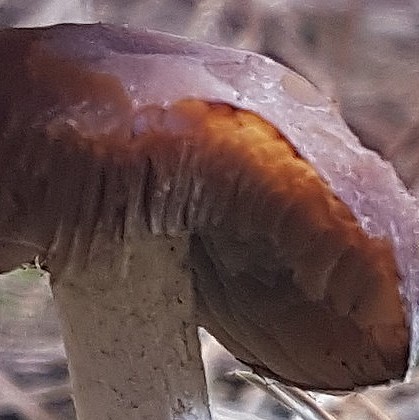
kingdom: Fungi
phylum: Basidiomycota
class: Agaricomycetes
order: Agaricales
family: Psathyrellaceae
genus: Psathyrella
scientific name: Psathyrella
